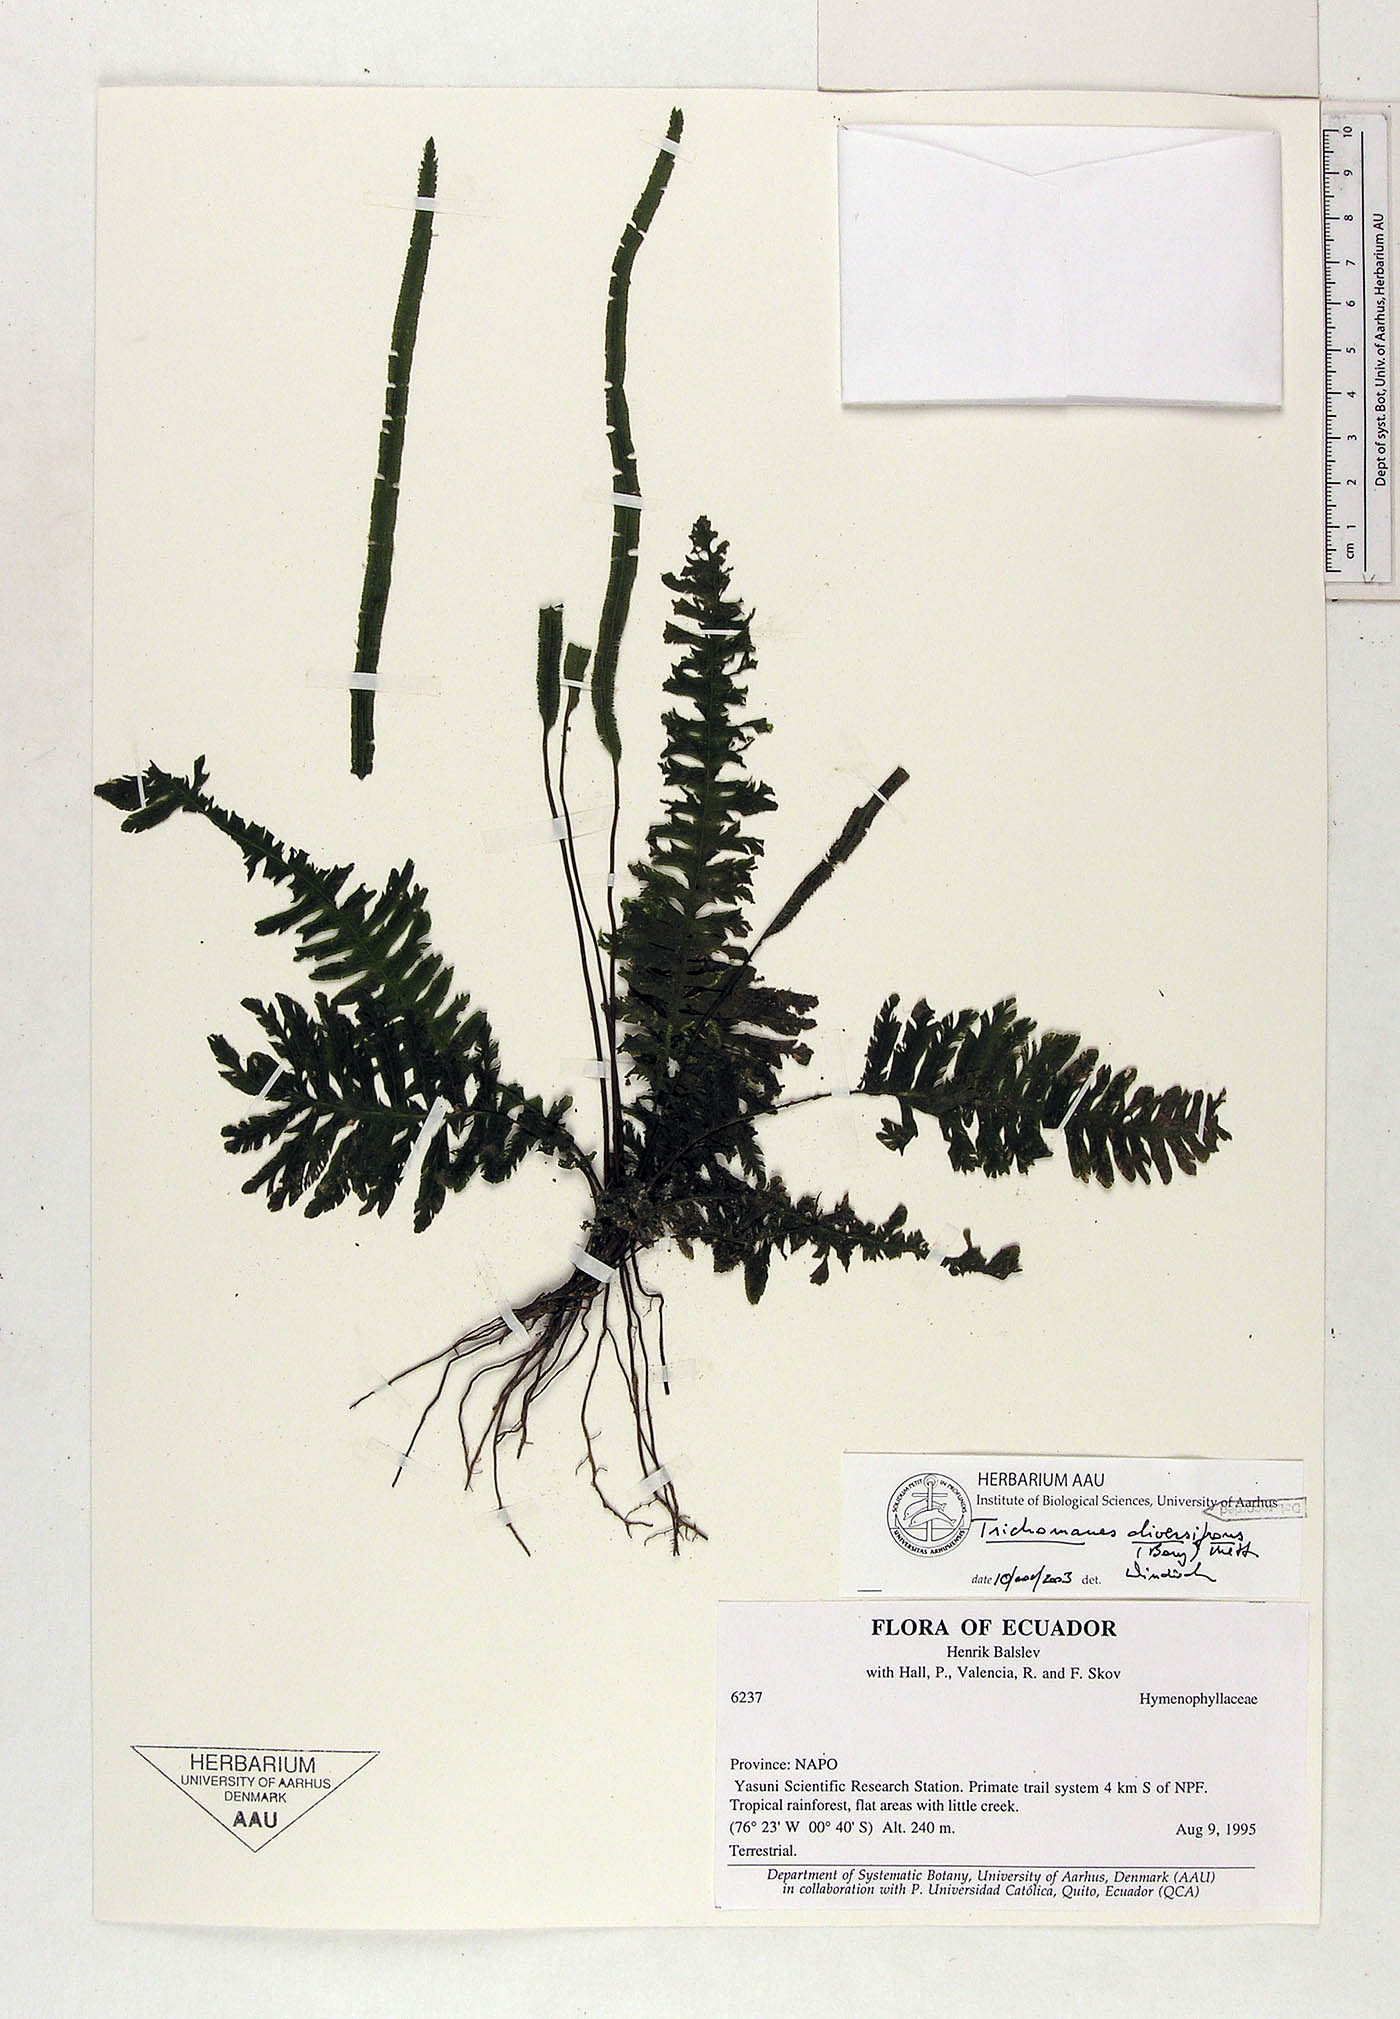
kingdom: Plantae
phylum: Tracheophyta
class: Polypodiopsida
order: Hymenophyllales
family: Hymenophyllaceae
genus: Trichomanes
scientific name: Trichomanes diversifrons
